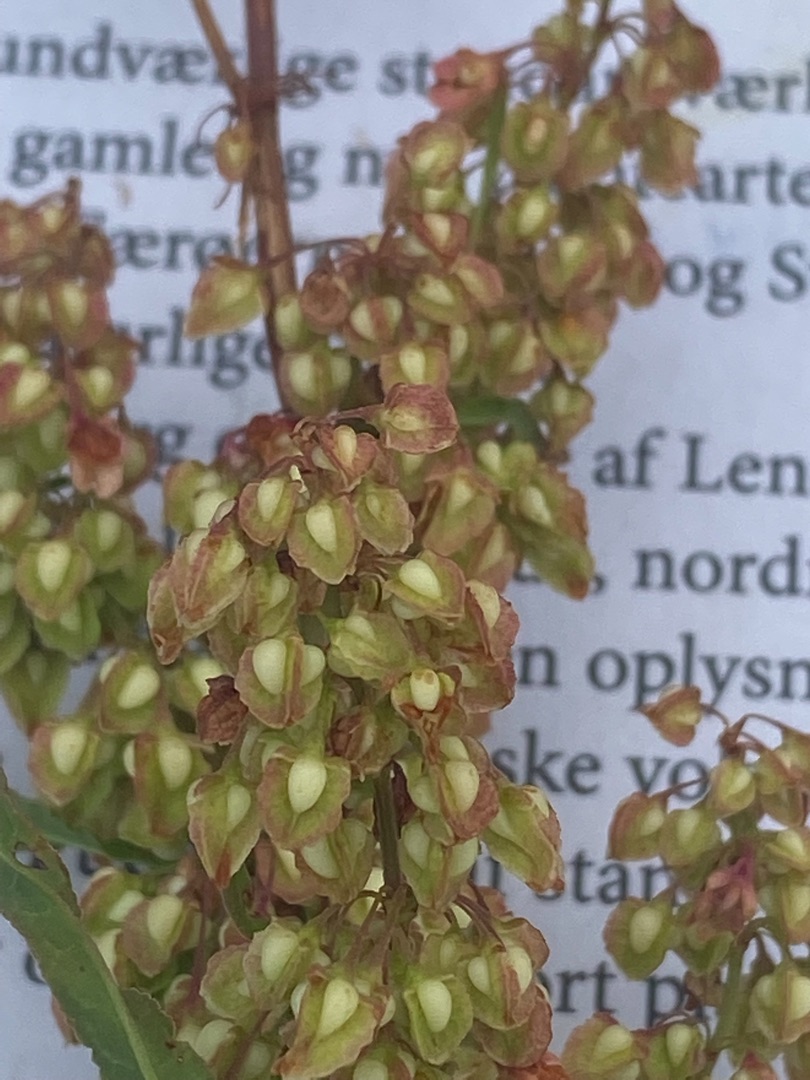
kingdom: Plantae
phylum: Tracheophyta
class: Magnoliopsida
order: Caryophyllales
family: Polygonaceae
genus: Rumex
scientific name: Rumex crispus
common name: Kruset skræppe
